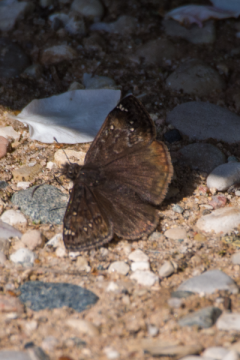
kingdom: Animalia
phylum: Arthropoda
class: Insecta
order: Lepidoptera
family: Hesperiidae
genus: Gesta
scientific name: Gesta
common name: Juvenal's Duskywing
